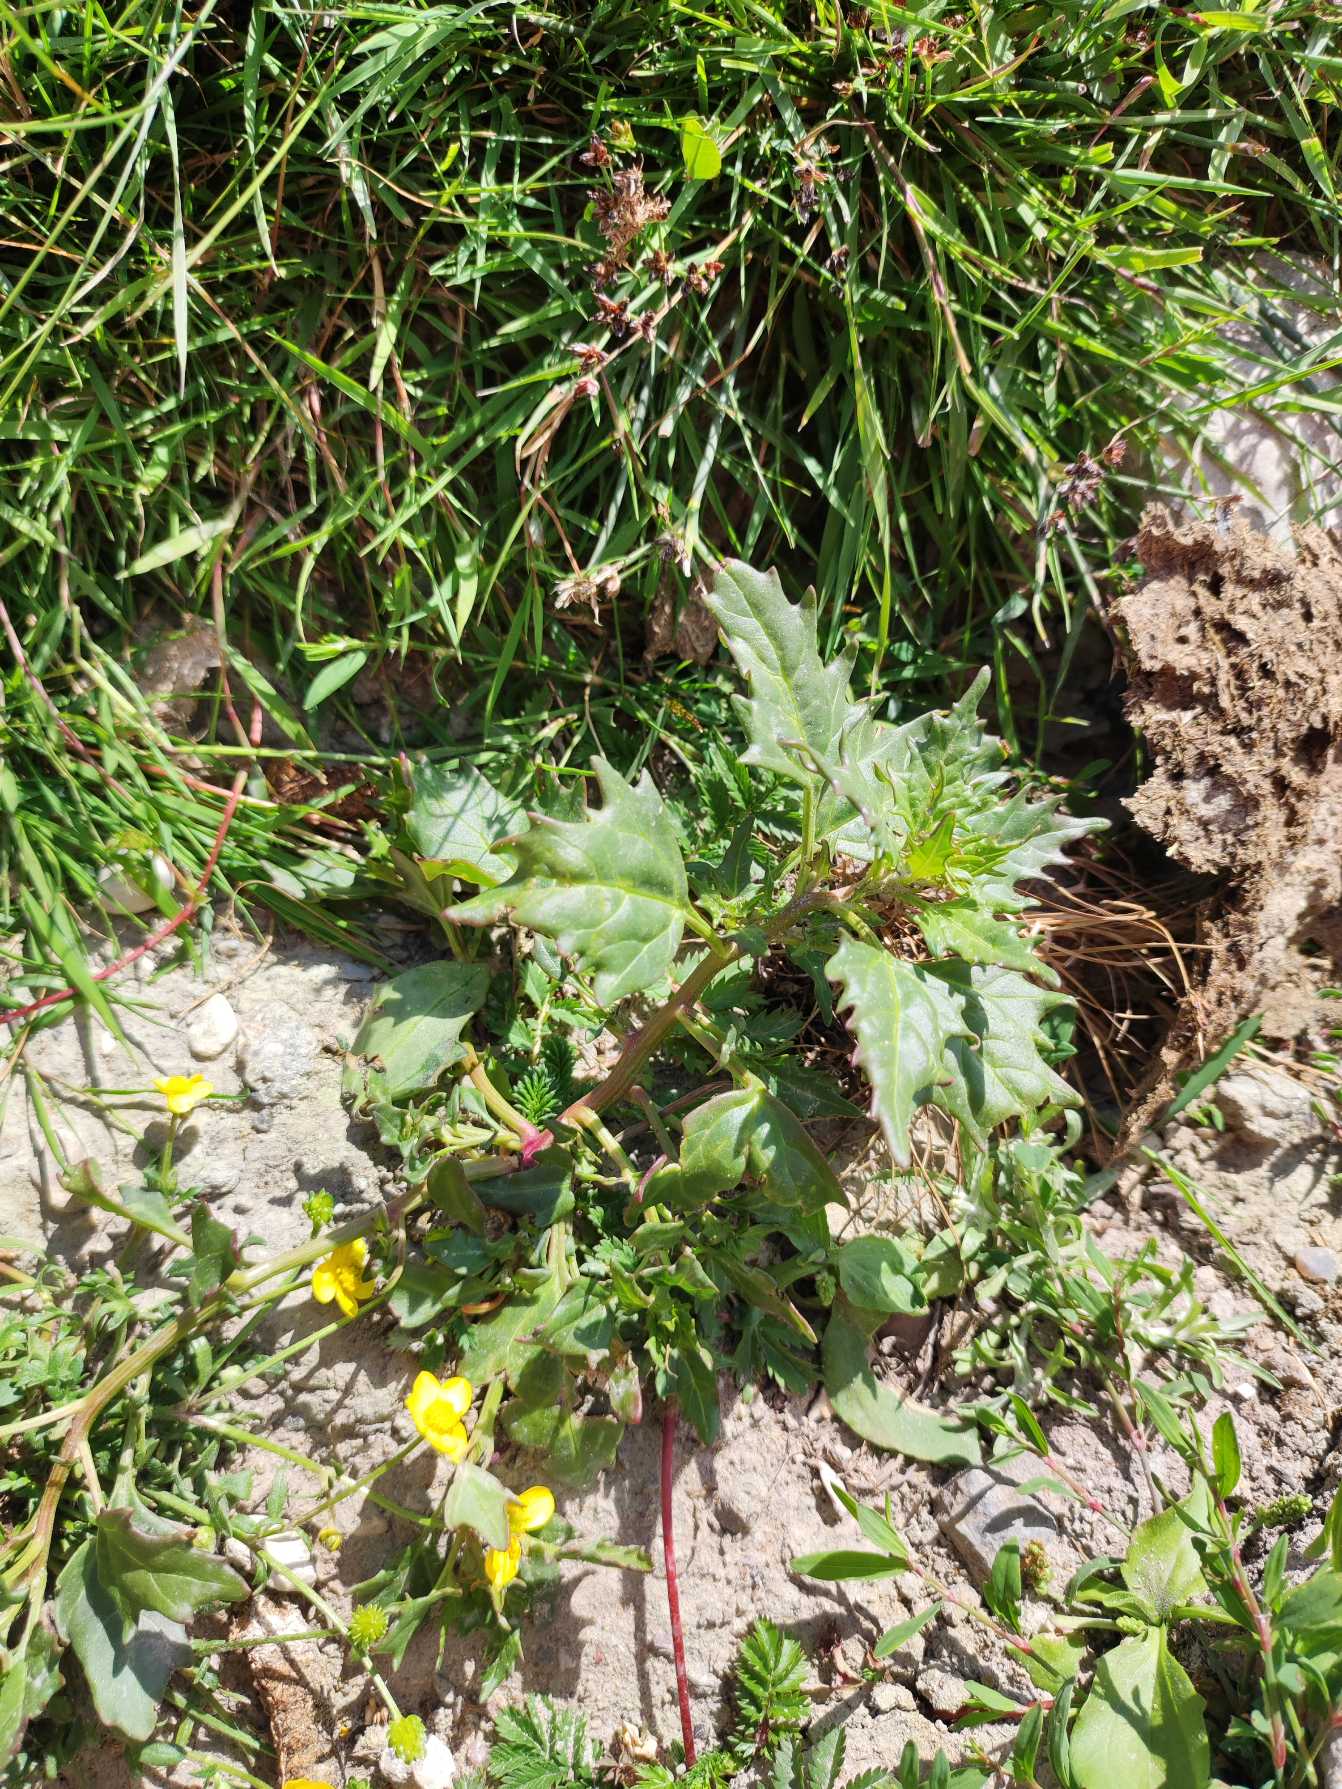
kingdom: Plantae
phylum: Tracheophyta
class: Magnoliopsida
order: Caryophyllales
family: Amaranthaceae
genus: Oxybasis
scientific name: Oxybasis rubra
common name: Rød gåsefod
